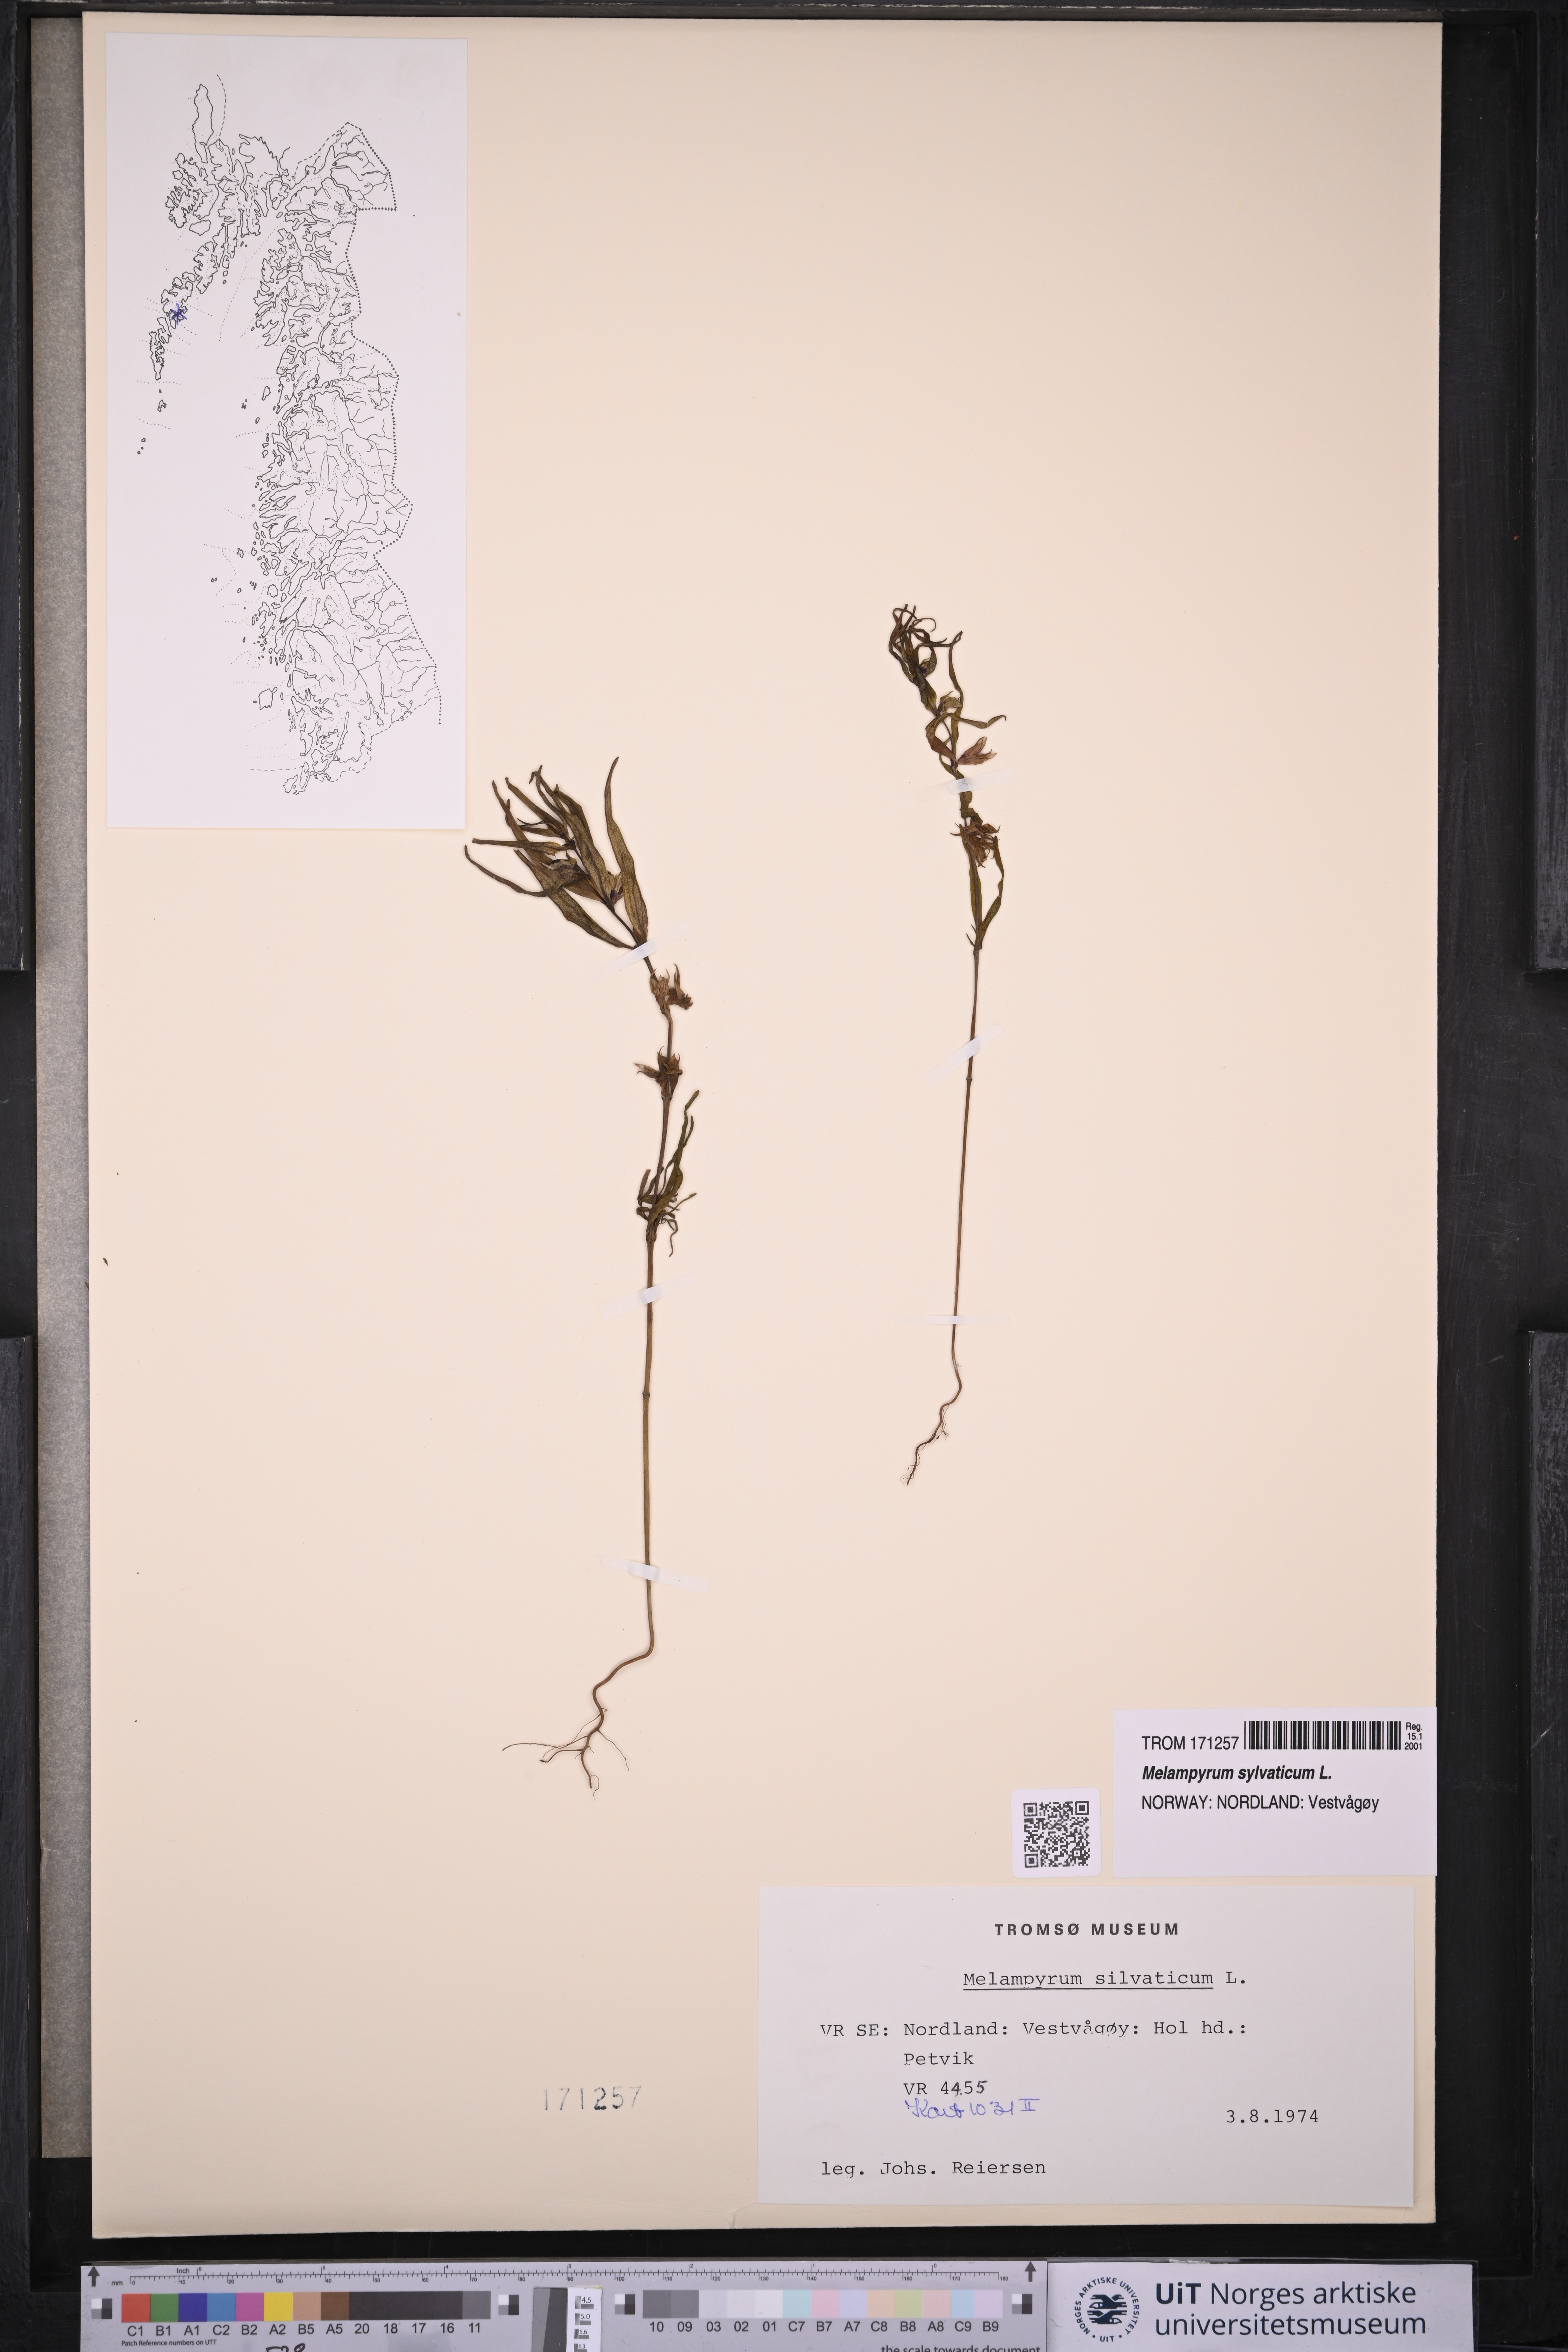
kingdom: Plantae
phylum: Tracheophyta
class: Magnoliopsida
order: Lamiales
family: Orobanchaceae
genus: Melampyrum
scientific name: Melampyrum sylvaticum
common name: Small cow-wheat
